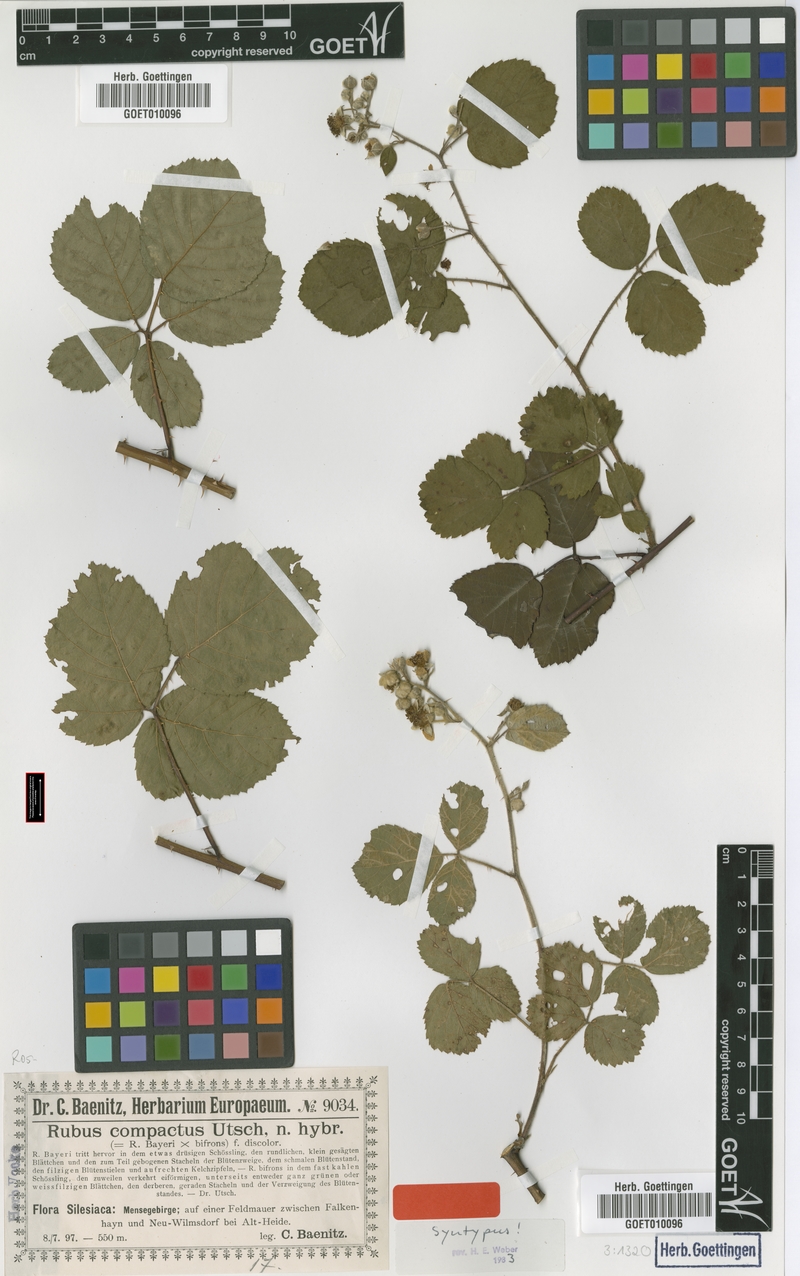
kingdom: Plantae
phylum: Tracheophyta
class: Magnoliopsida
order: Rosales
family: Rosaceae
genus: Rubus
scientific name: Rubus compactus
